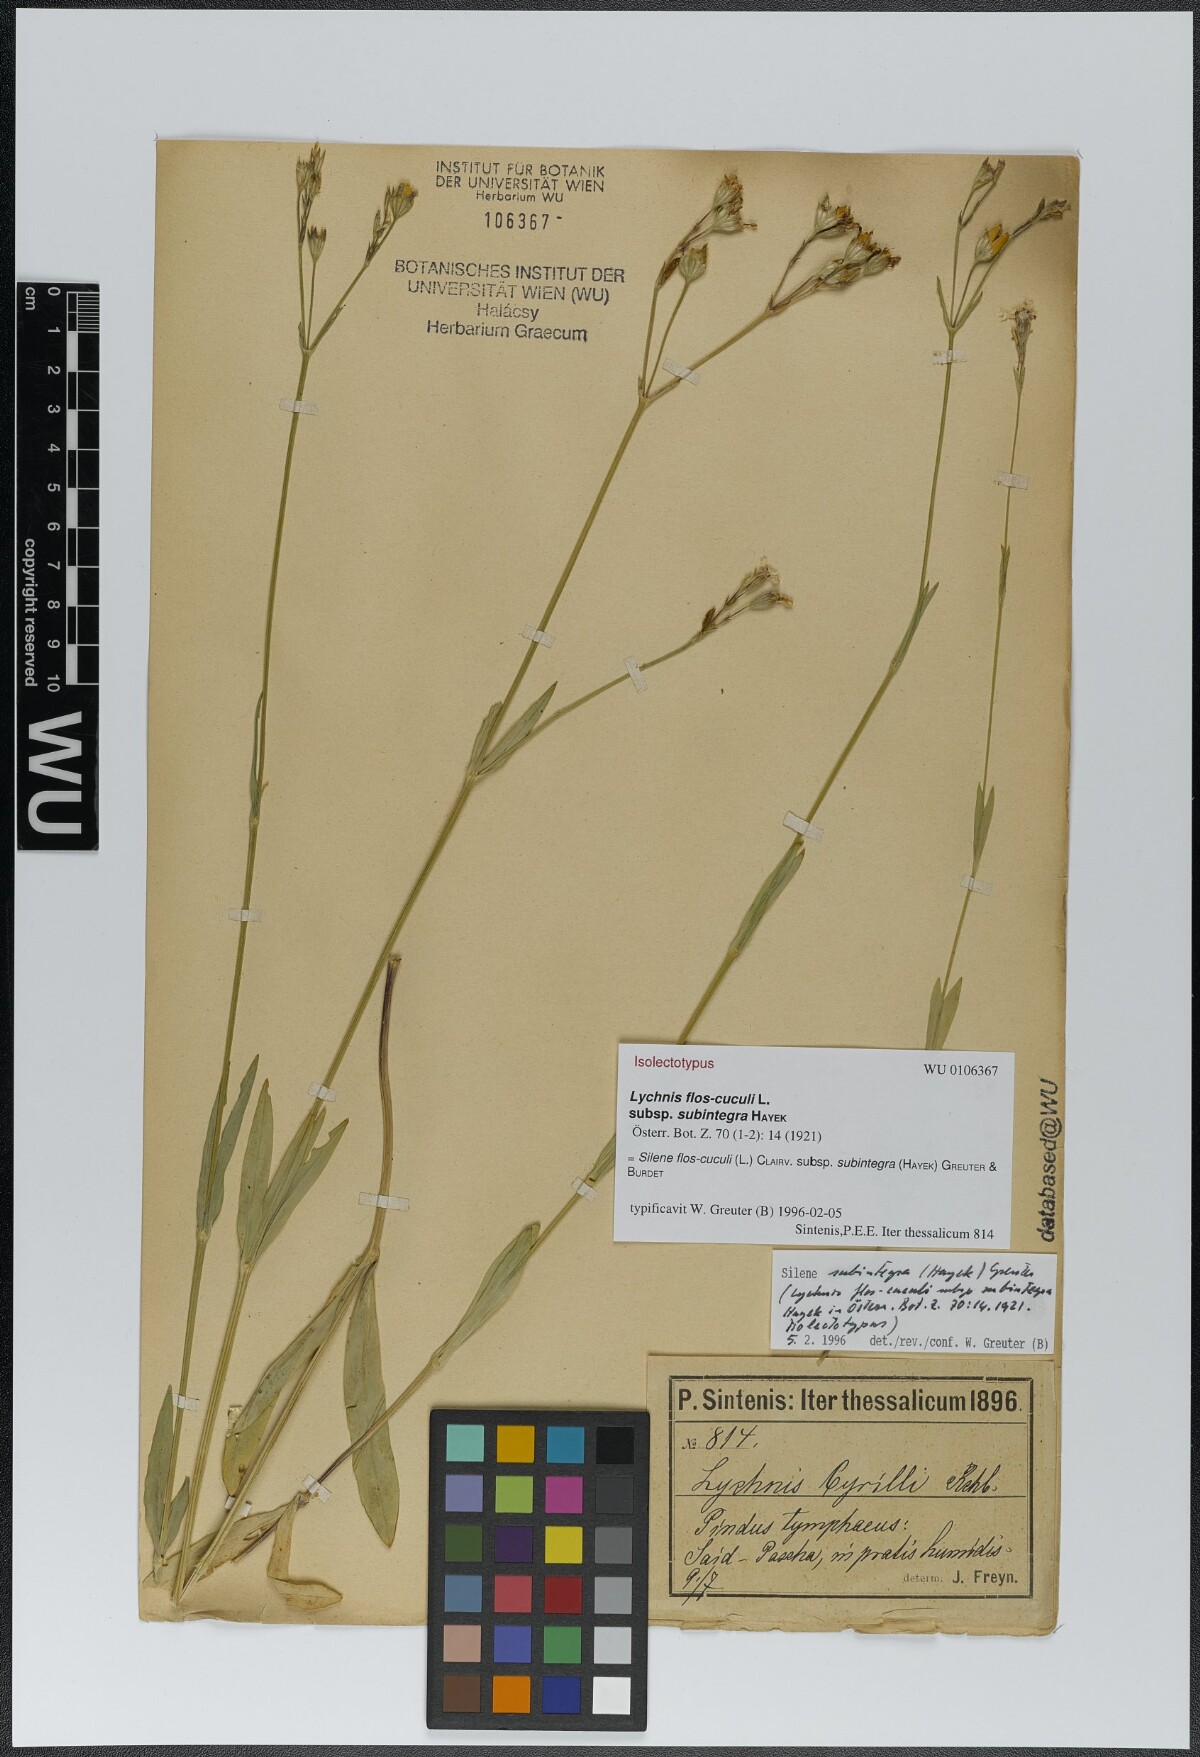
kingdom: Plantae
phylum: Tracheophyta
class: Magnoliopsida
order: Caryophyllales
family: Caryophyllaceae
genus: Silene
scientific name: Silene subintegra
